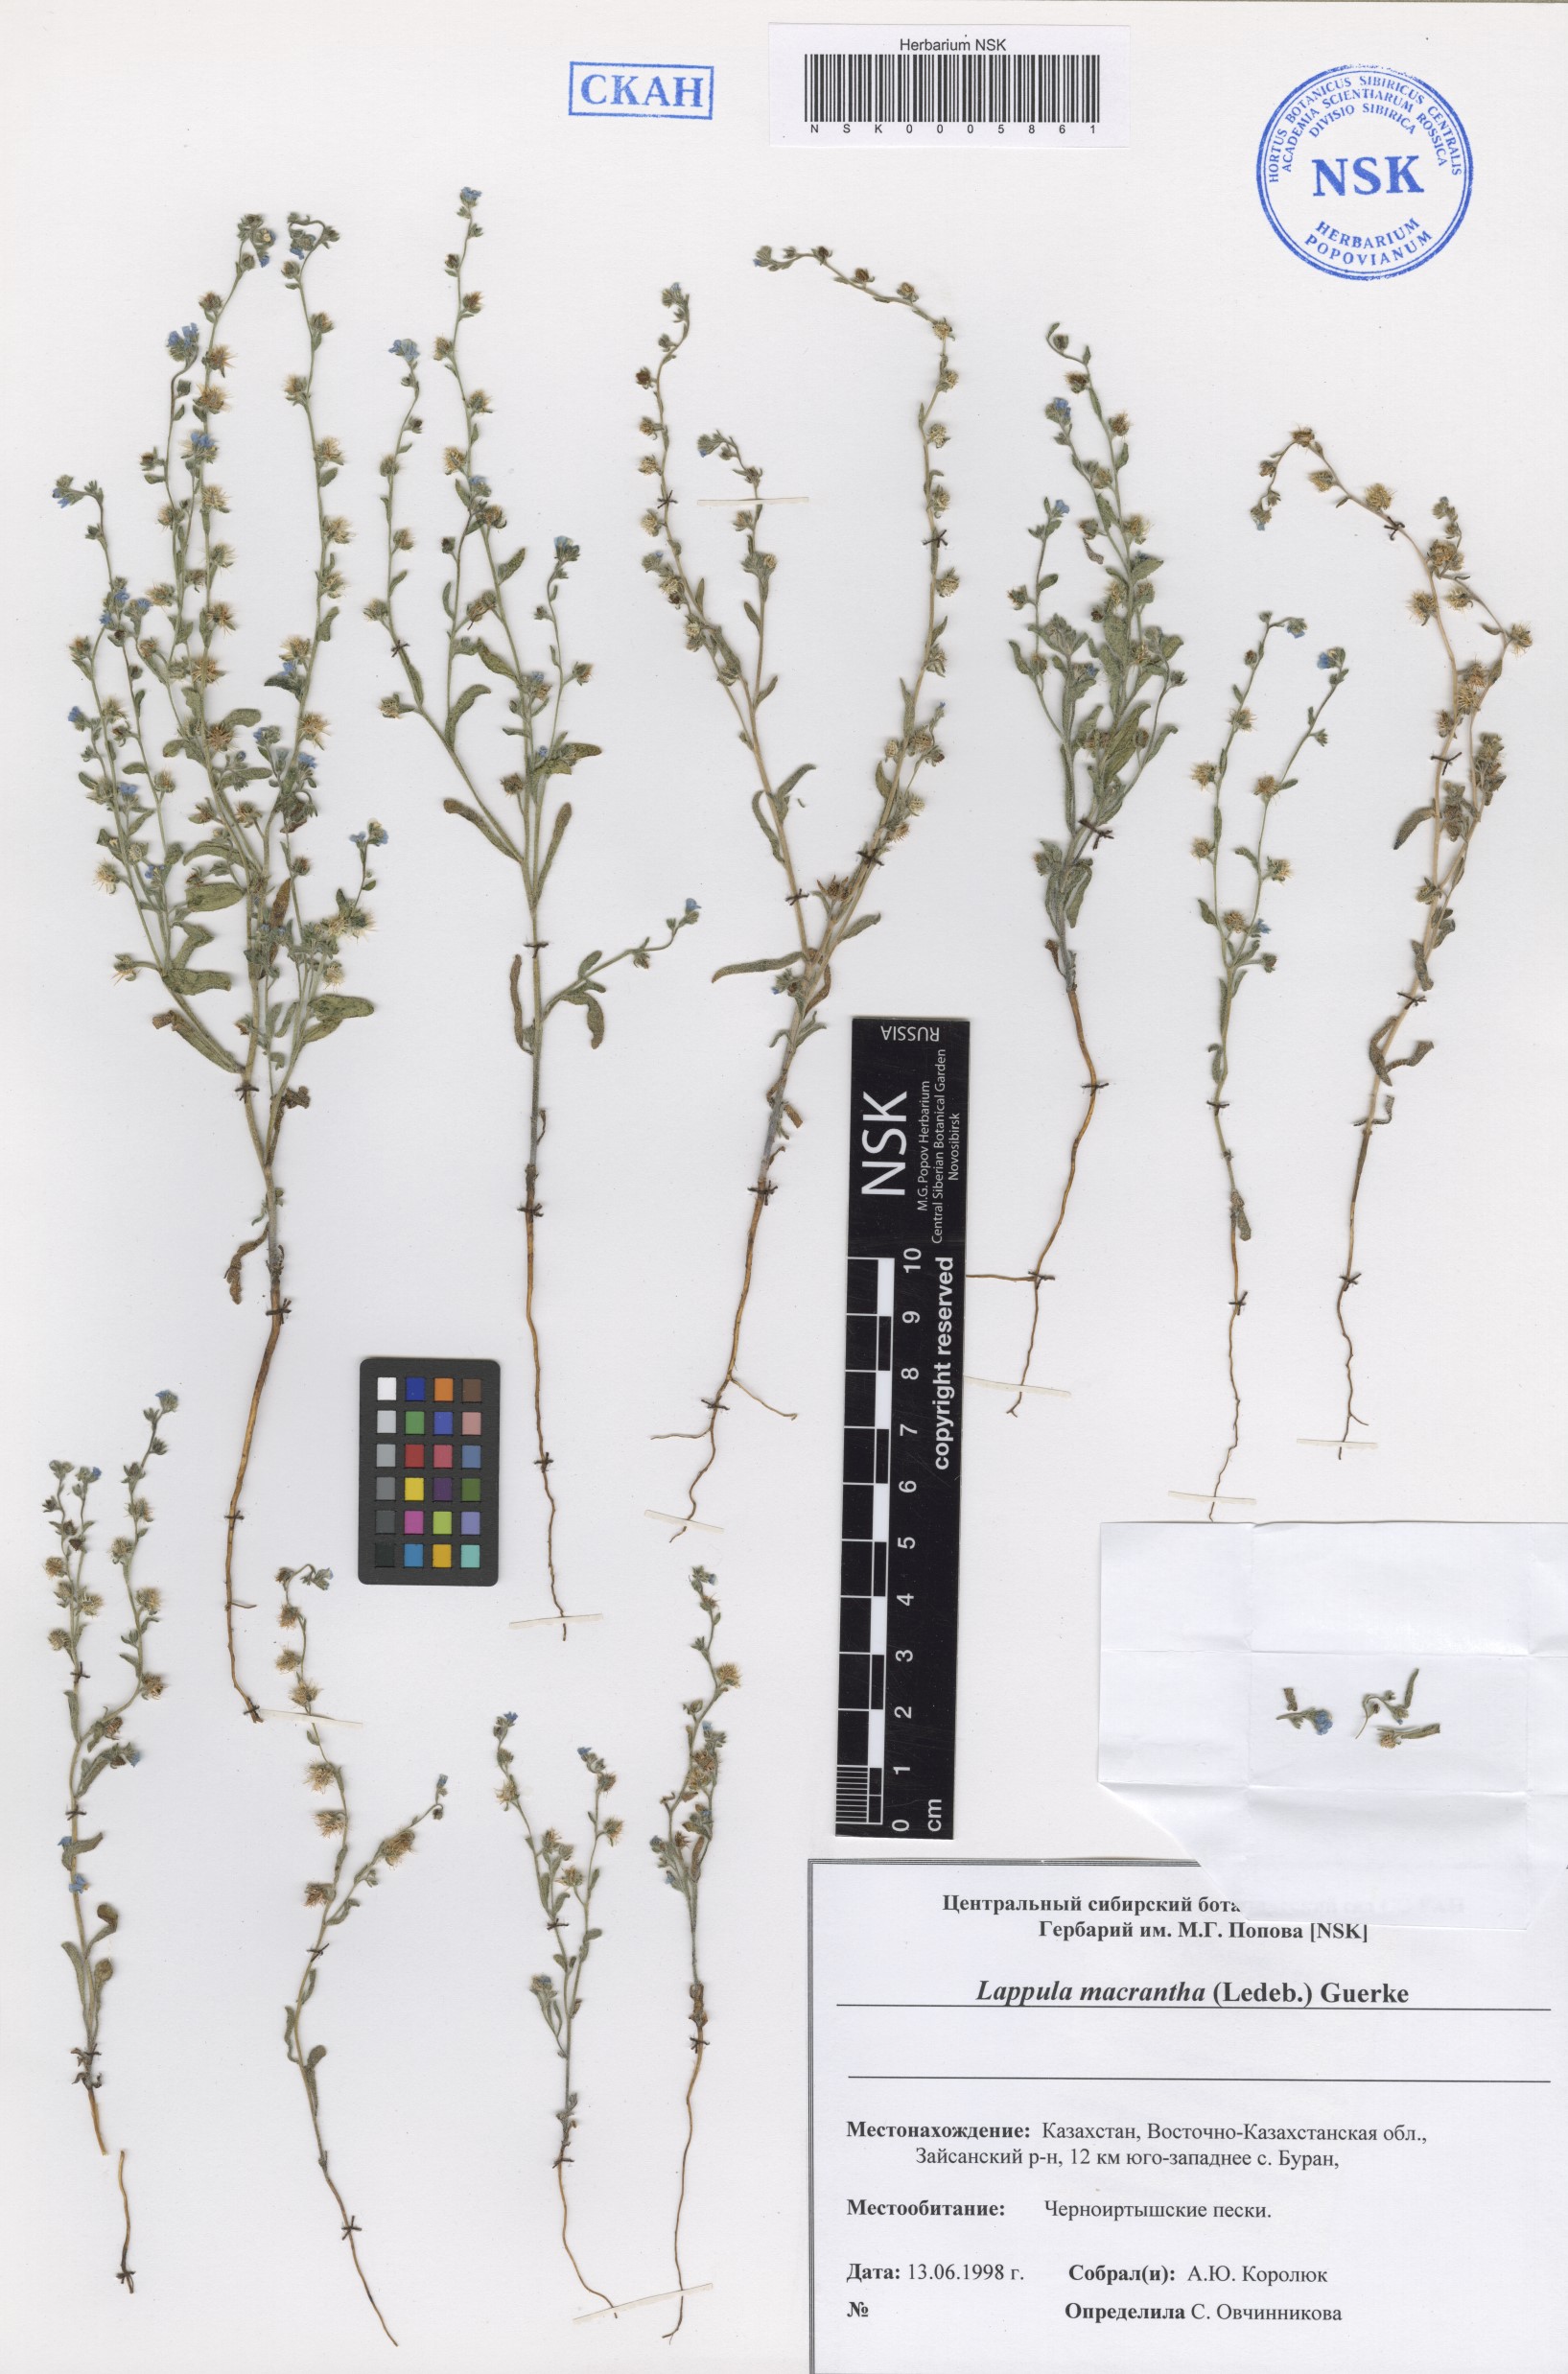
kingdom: Plantae
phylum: Tracheophyta
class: Magnoliopsida
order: Boraginales
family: Boraginaceae
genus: Lappula
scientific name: Lappula macrantha
